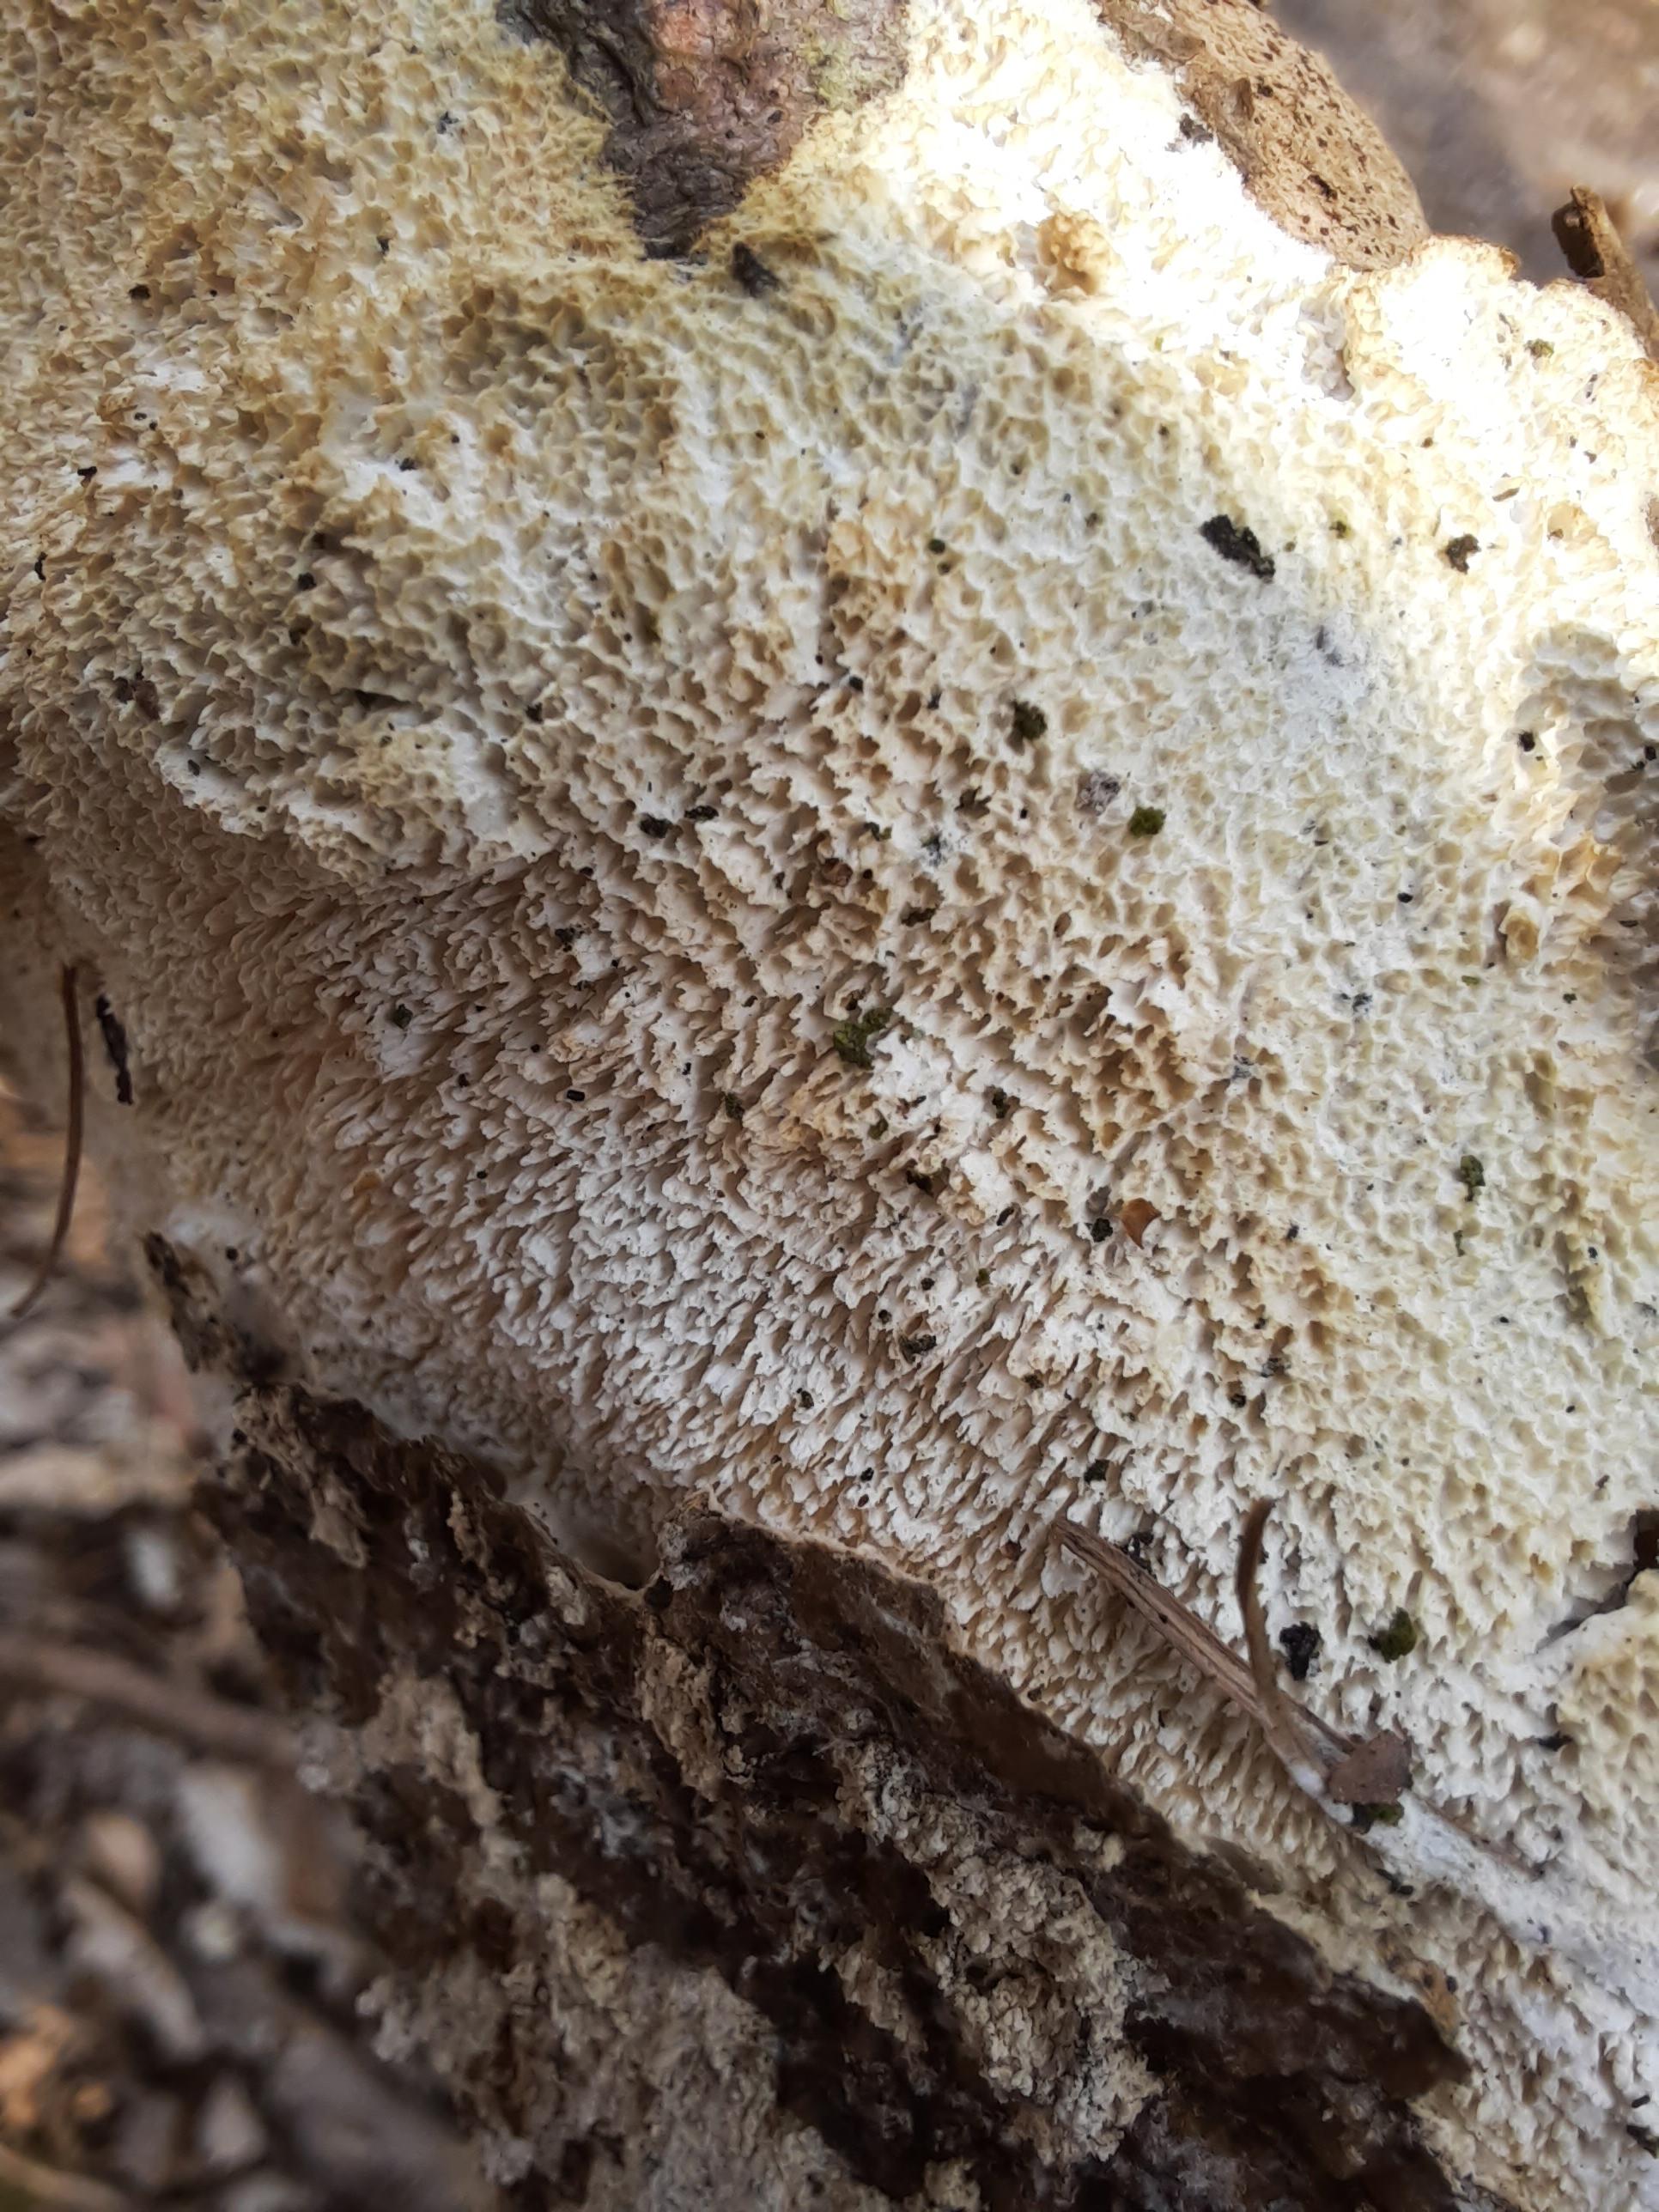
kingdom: Fungi
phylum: Basidiomycota
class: Agaricomycetes
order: Hymenochaetales
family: Schizoporaceae
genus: Schizopora
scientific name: Schizopora paradoxa
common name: hvid tandsvamp
